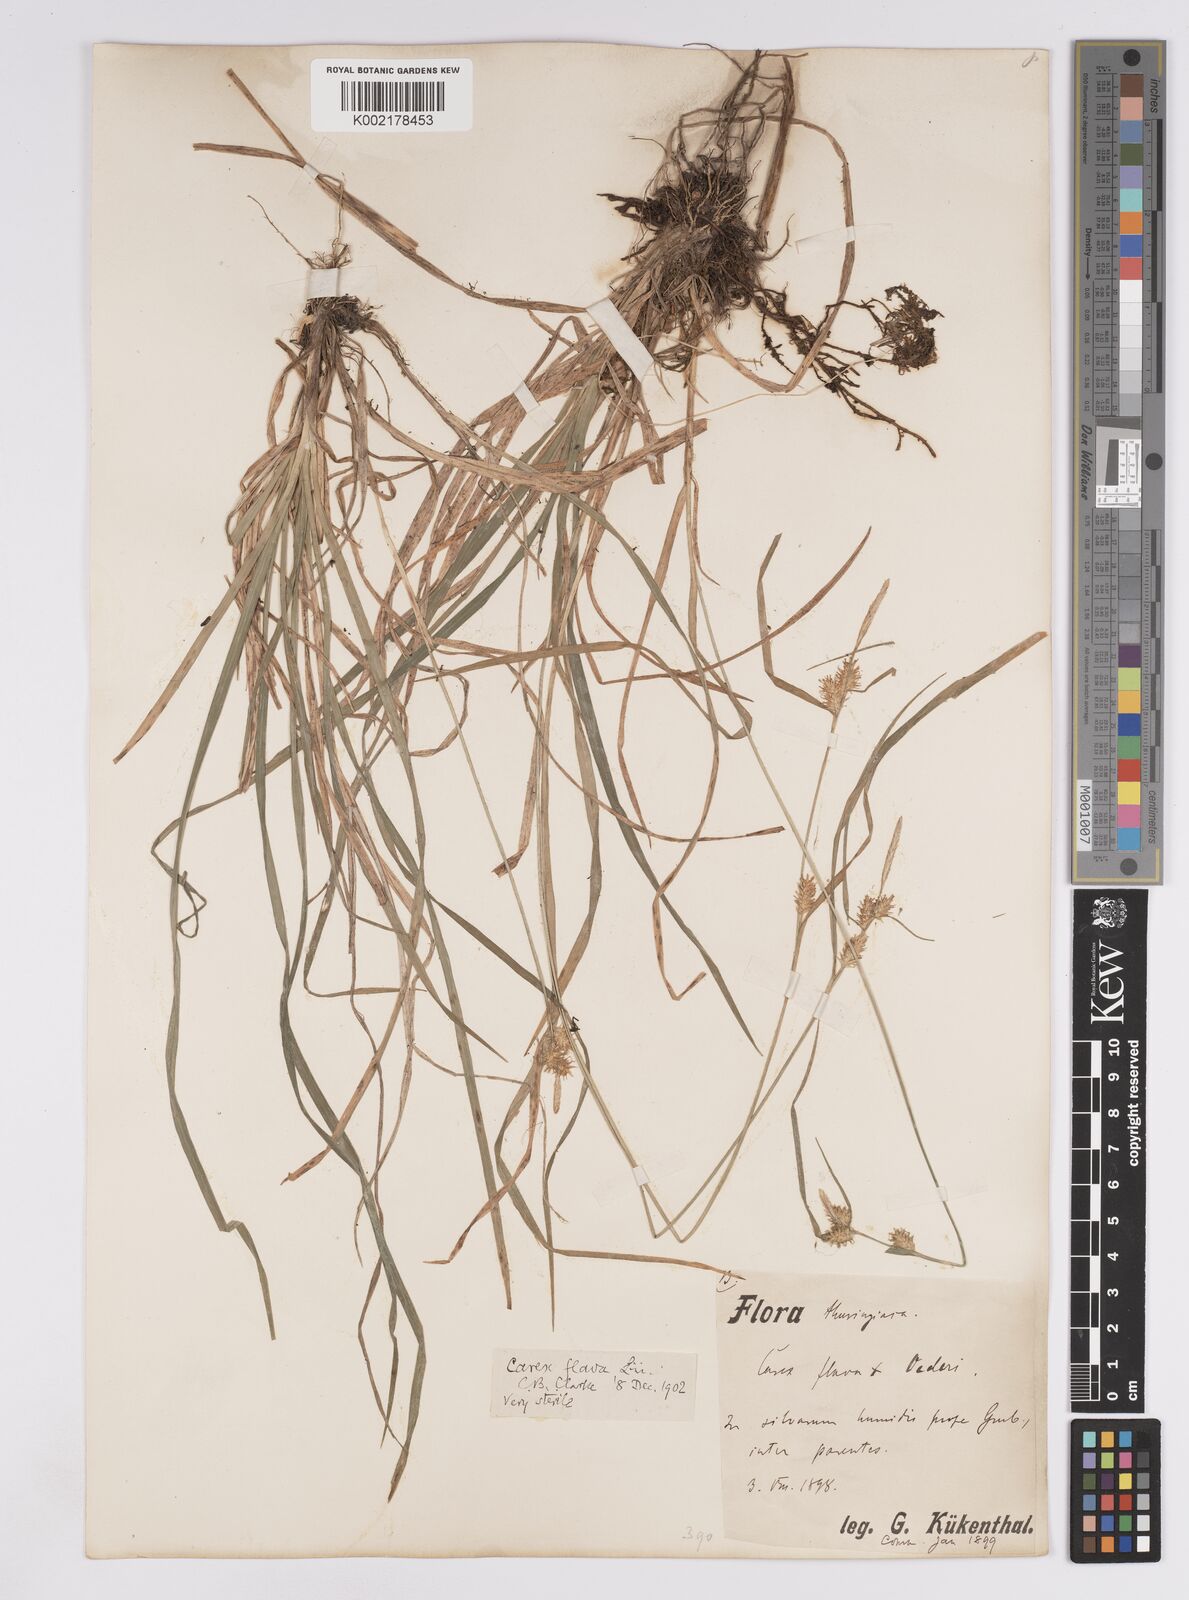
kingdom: Plantae
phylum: Tracheophyta
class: Liliopsida
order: Poales
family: Cyperaceae
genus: Carex
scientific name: Carex demissa
